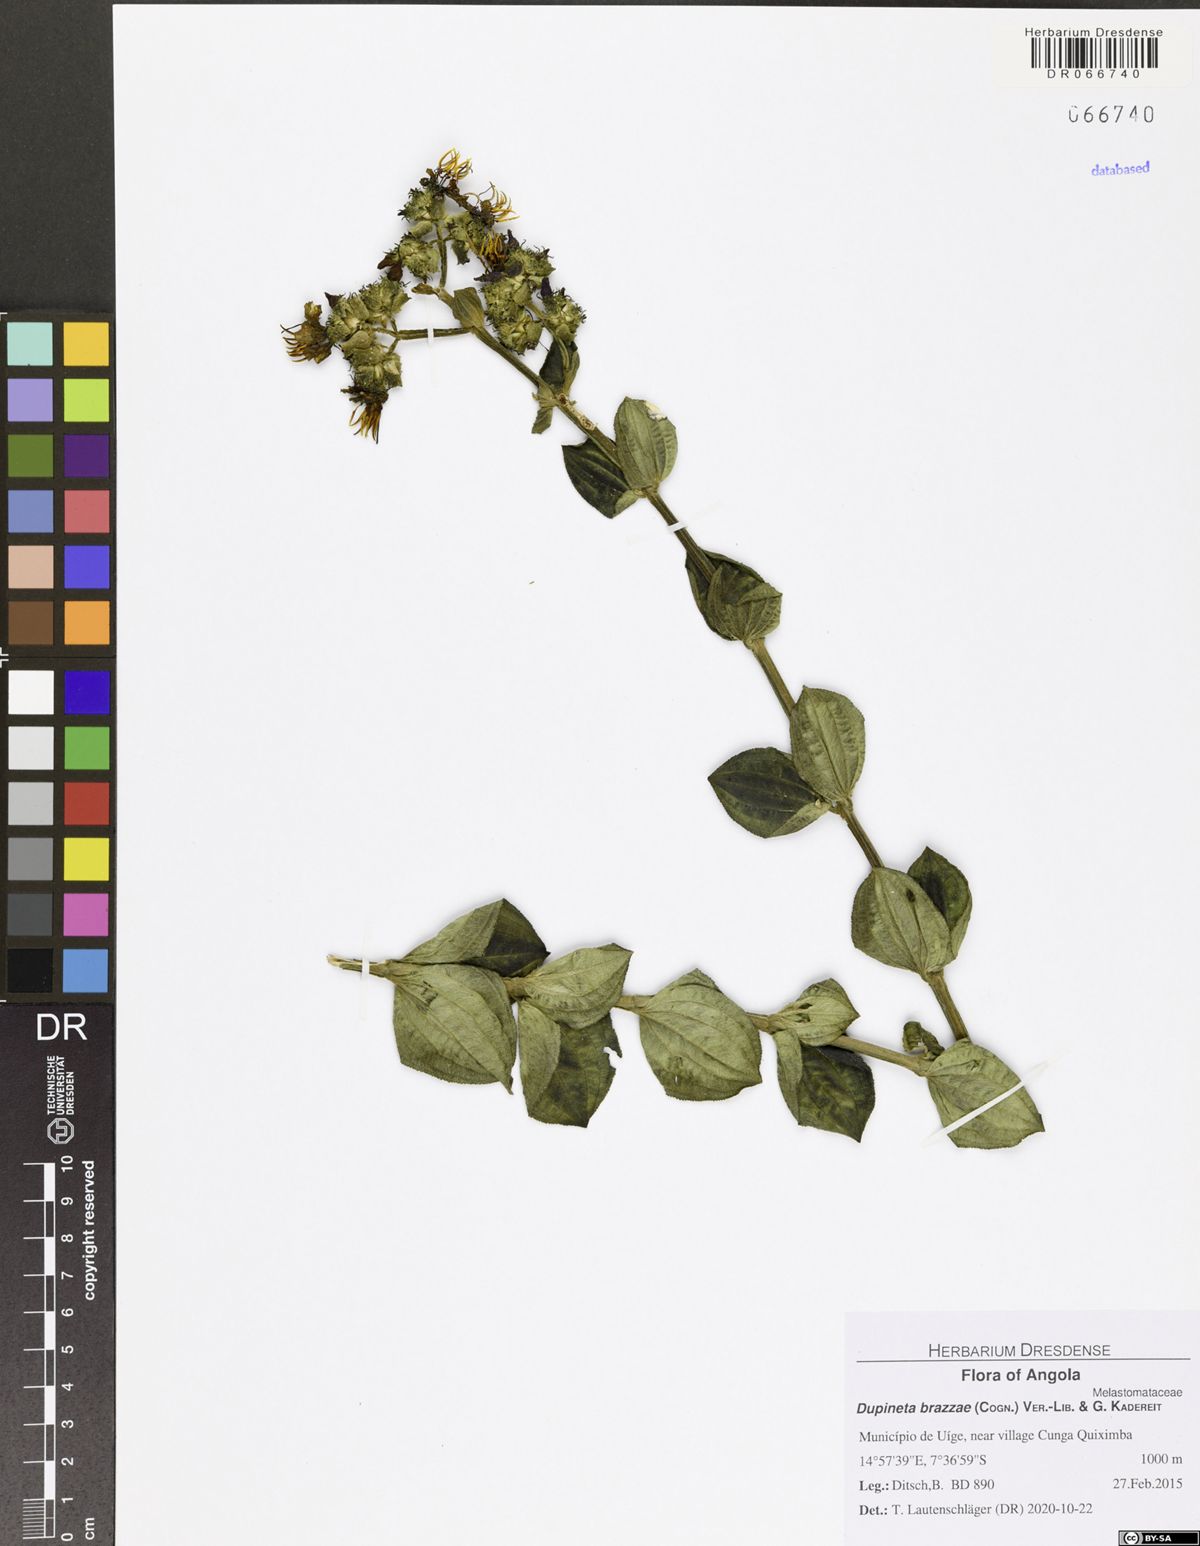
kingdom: Plantae
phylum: Tracheophyta
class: Magnoliopsida
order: Myrtales
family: Melastomataceae
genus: Dupineta
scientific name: Dupineta brazzae
